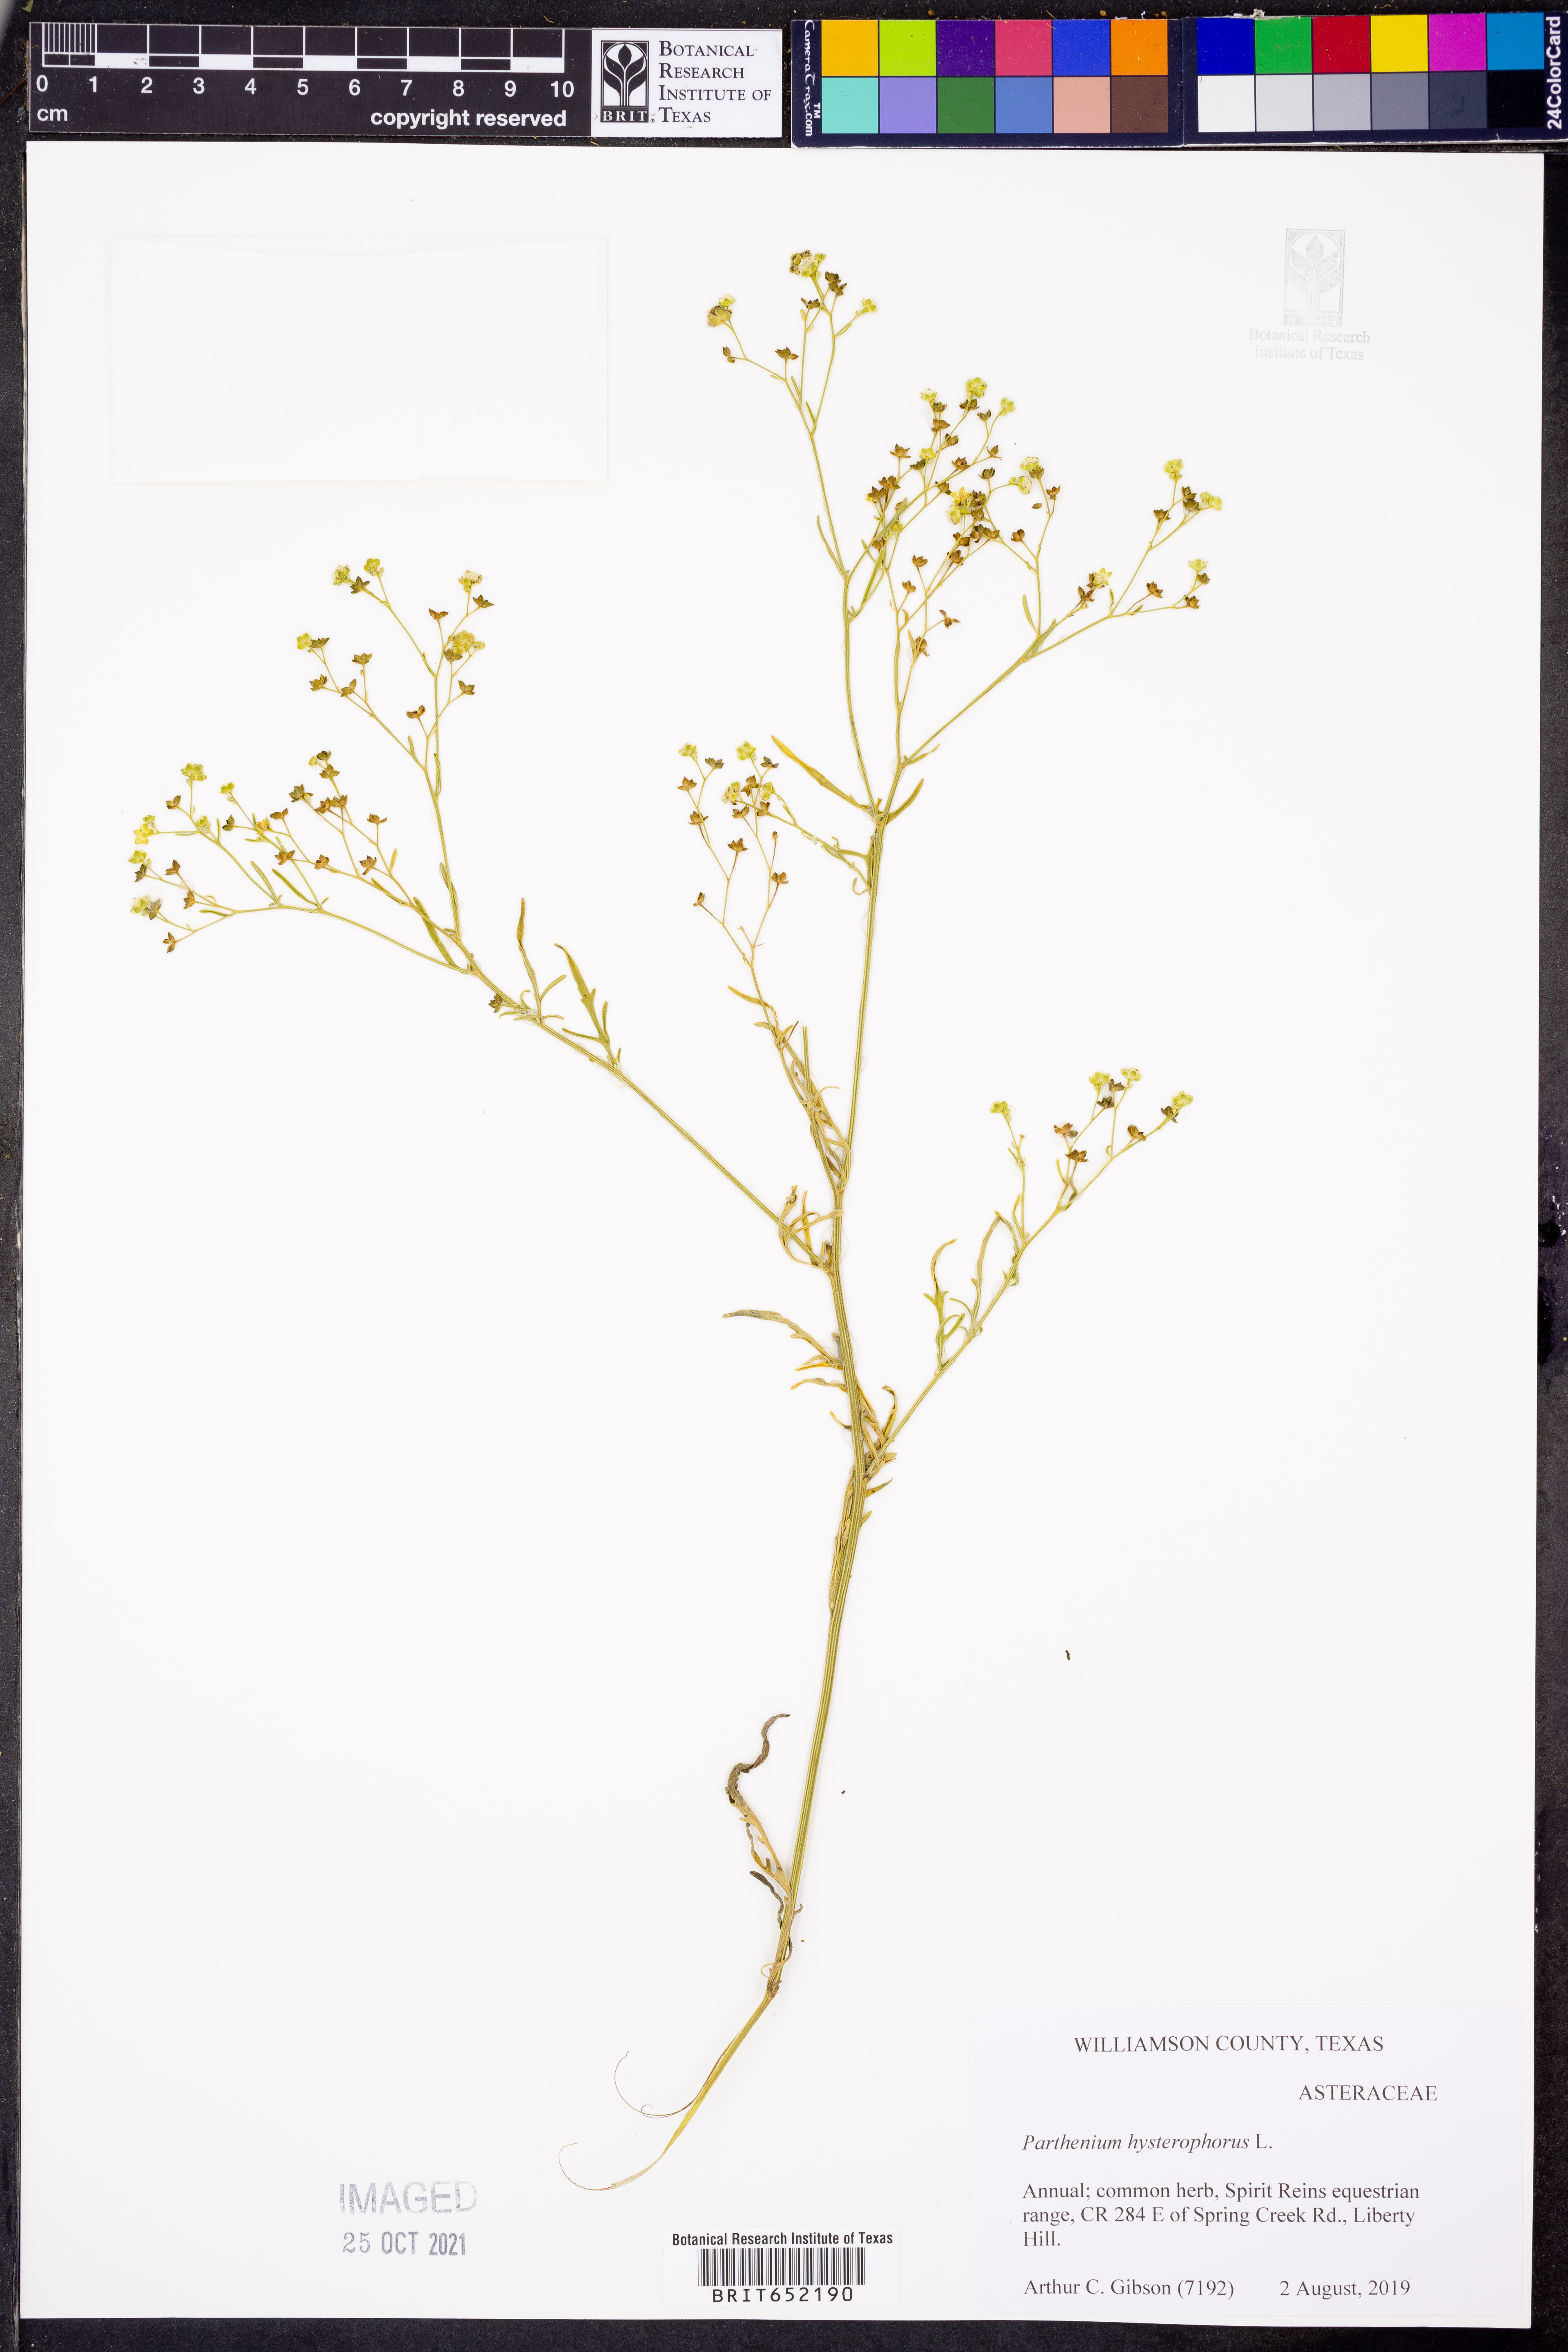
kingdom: Plantae
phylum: Tracheophyta
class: Magnoliopsida
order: Asterales
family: Asteraceae
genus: Parthenium
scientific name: Parthenium hysterophorus
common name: Santa maria feverfew
